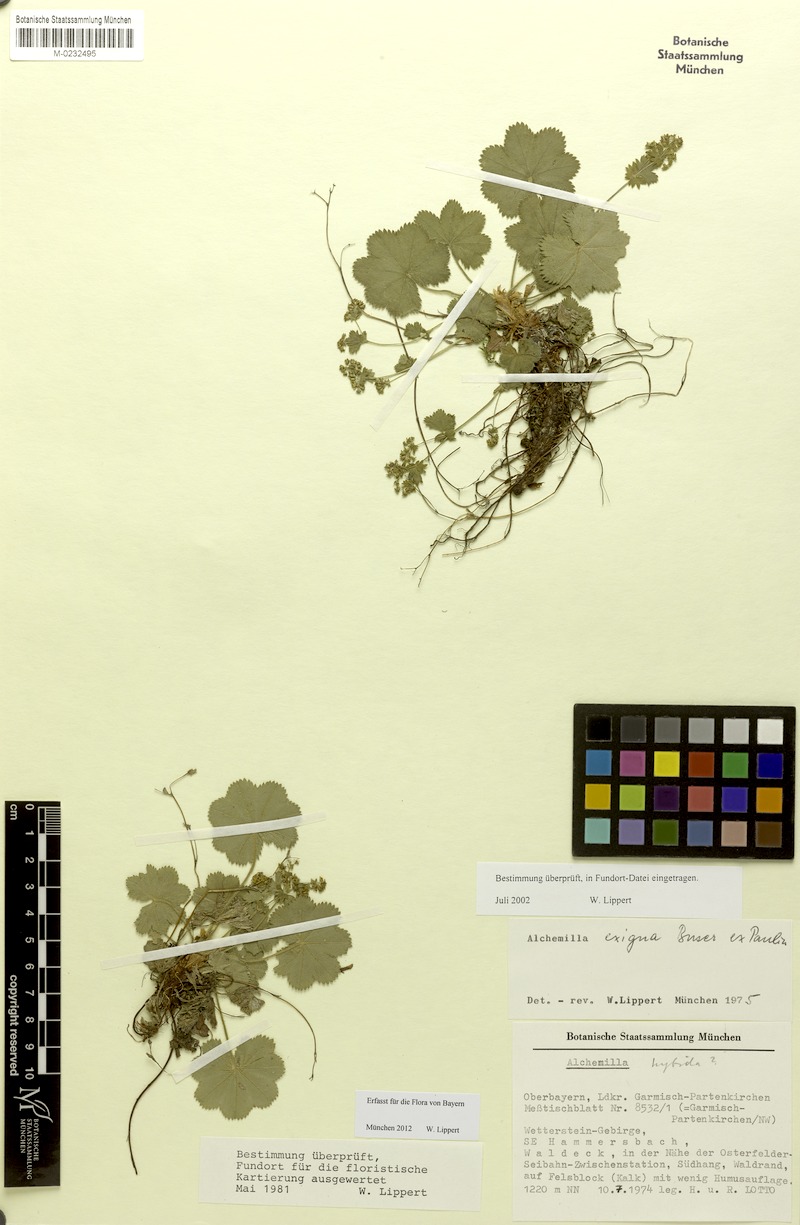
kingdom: Plantae
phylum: Tracheophyta
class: Magnoliopsida
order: Rosales
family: Rosaceae
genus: Alchemilla
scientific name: Alchemilla exigua
